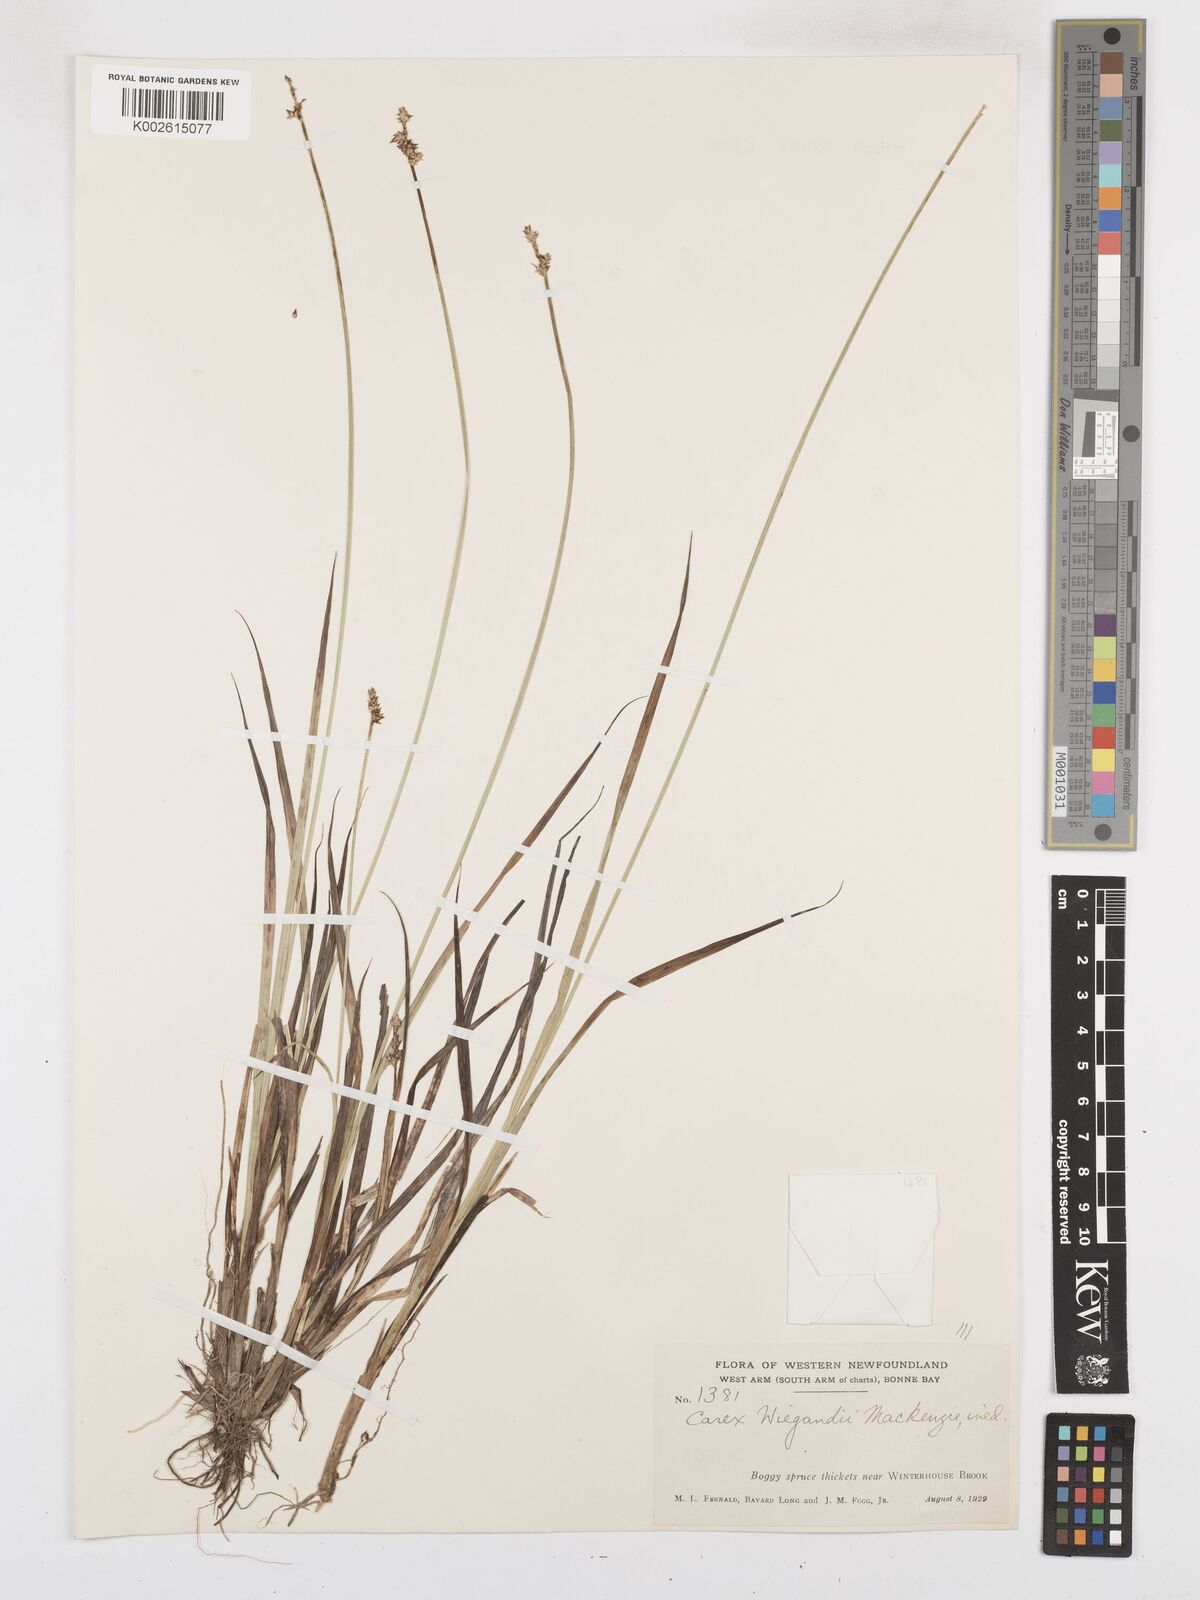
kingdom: Plantae
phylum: Tracheophyta
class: Liliopsida
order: Poales
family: Cyperaceae
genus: Carex
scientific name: Carex wiegandii
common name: Wiegand's sedge
